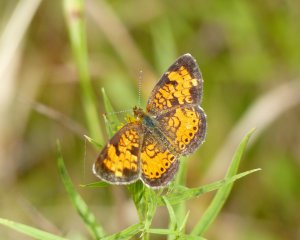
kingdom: Animalia
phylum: Arthropoda
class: Insecta
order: Lepidoptera
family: Nymphalidae
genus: Phyciodes
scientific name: Phyciodes tharos
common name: Northern Crescent
